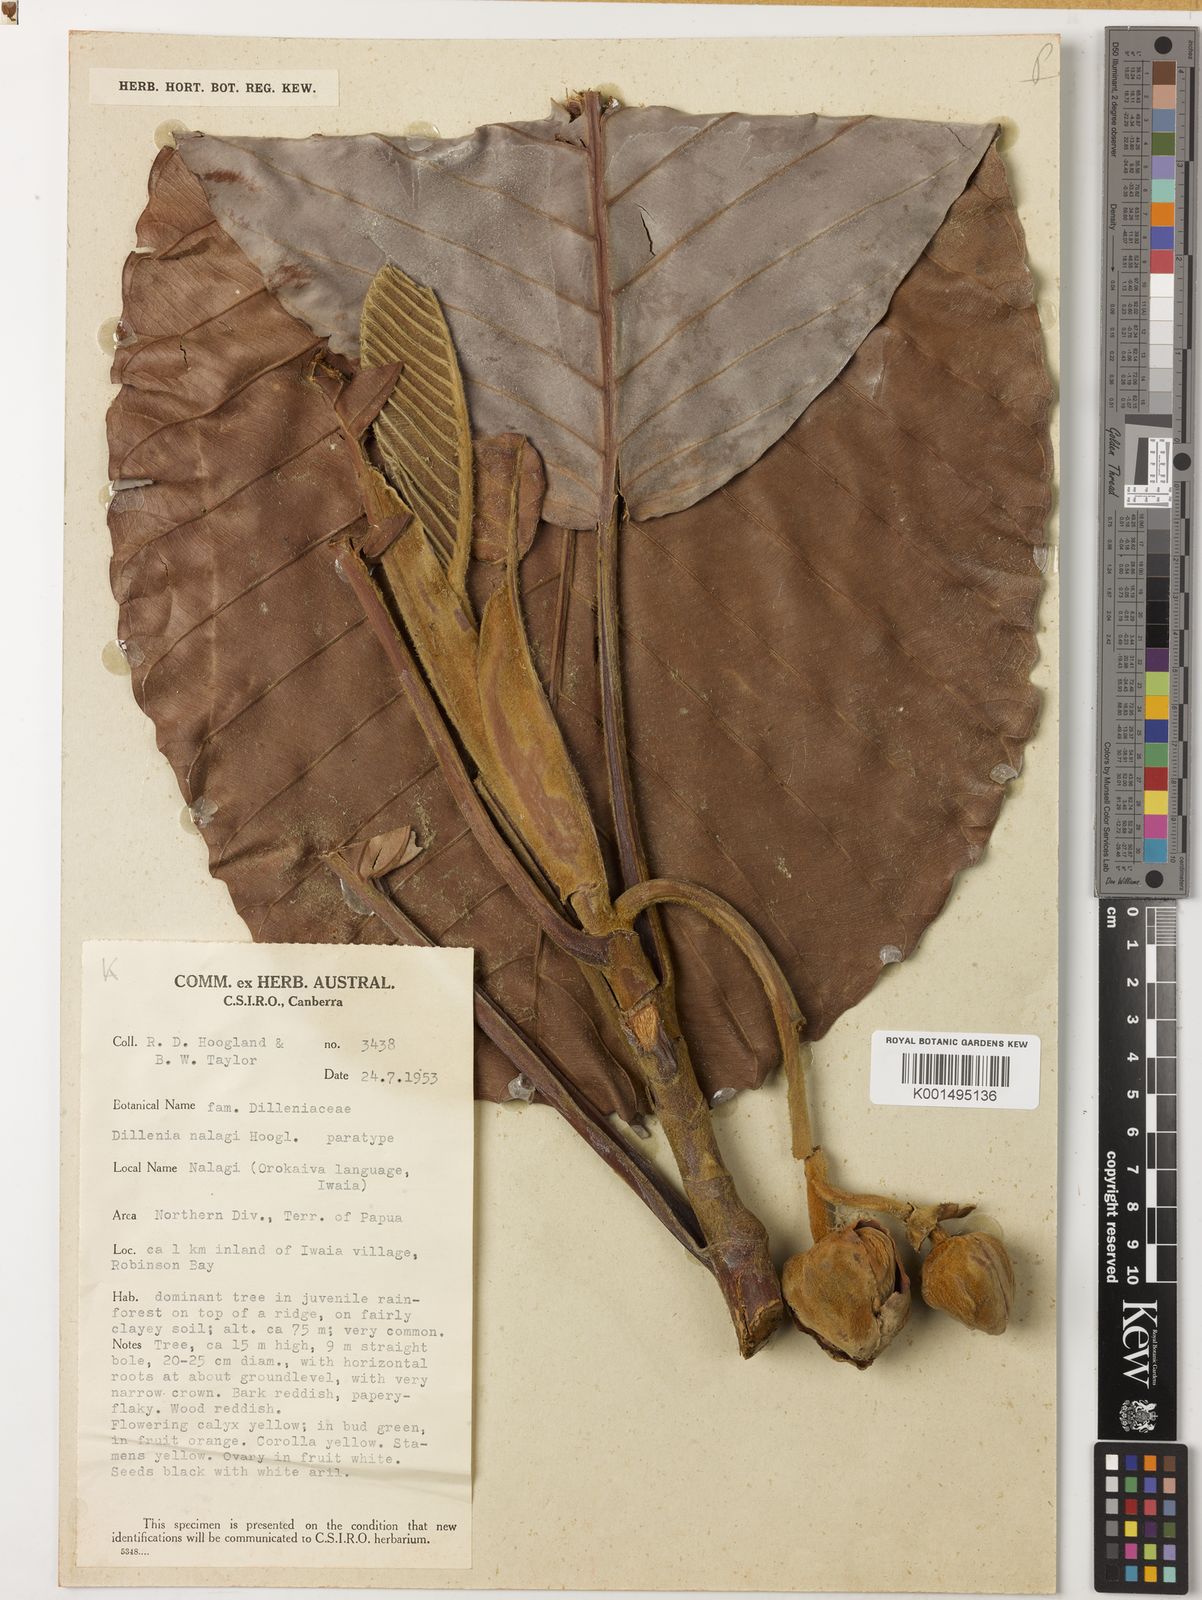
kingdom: Plantae
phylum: Tracheophyta
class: Magnoliopsida
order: Dilleniales
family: Dilleniaceae
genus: Dillenia
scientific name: Dillenia nalagi
